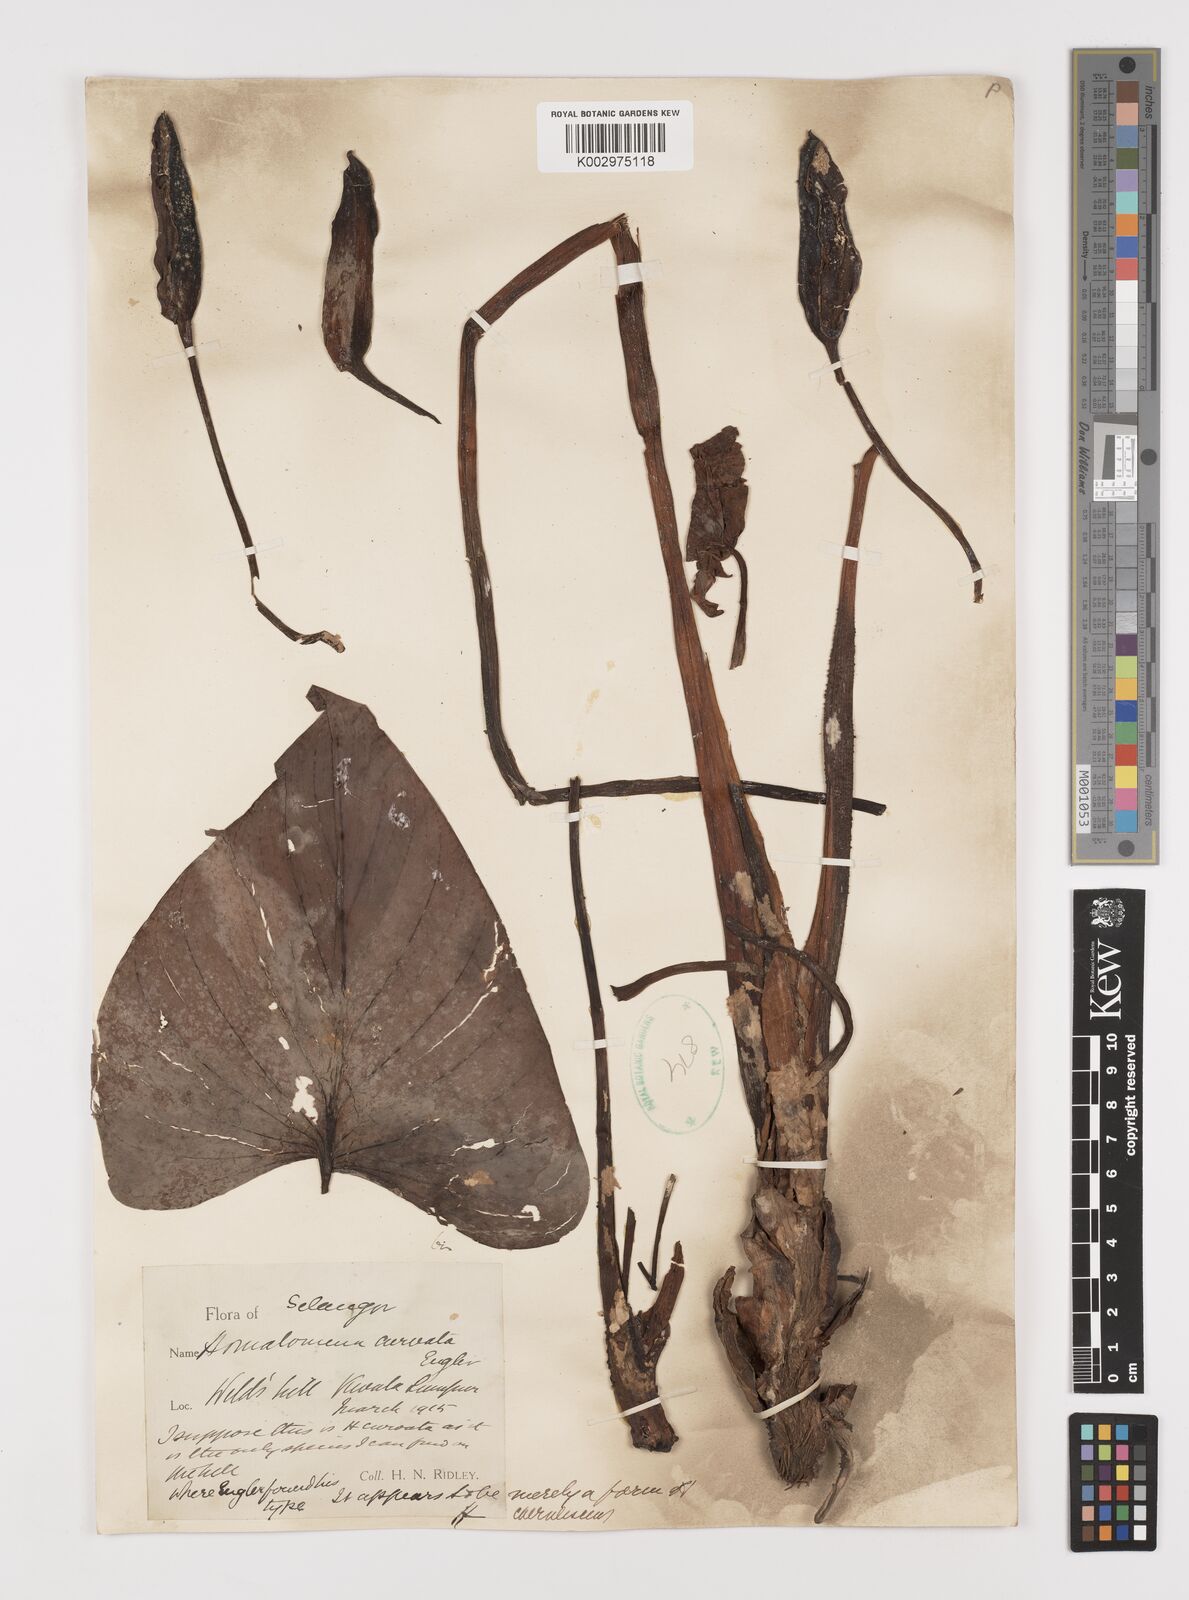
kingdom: Plantae
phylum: Tracheophyta
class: Liliopsida
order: Alismatales
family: Araceae
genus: Homalomena
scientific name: Homalomena pendula
